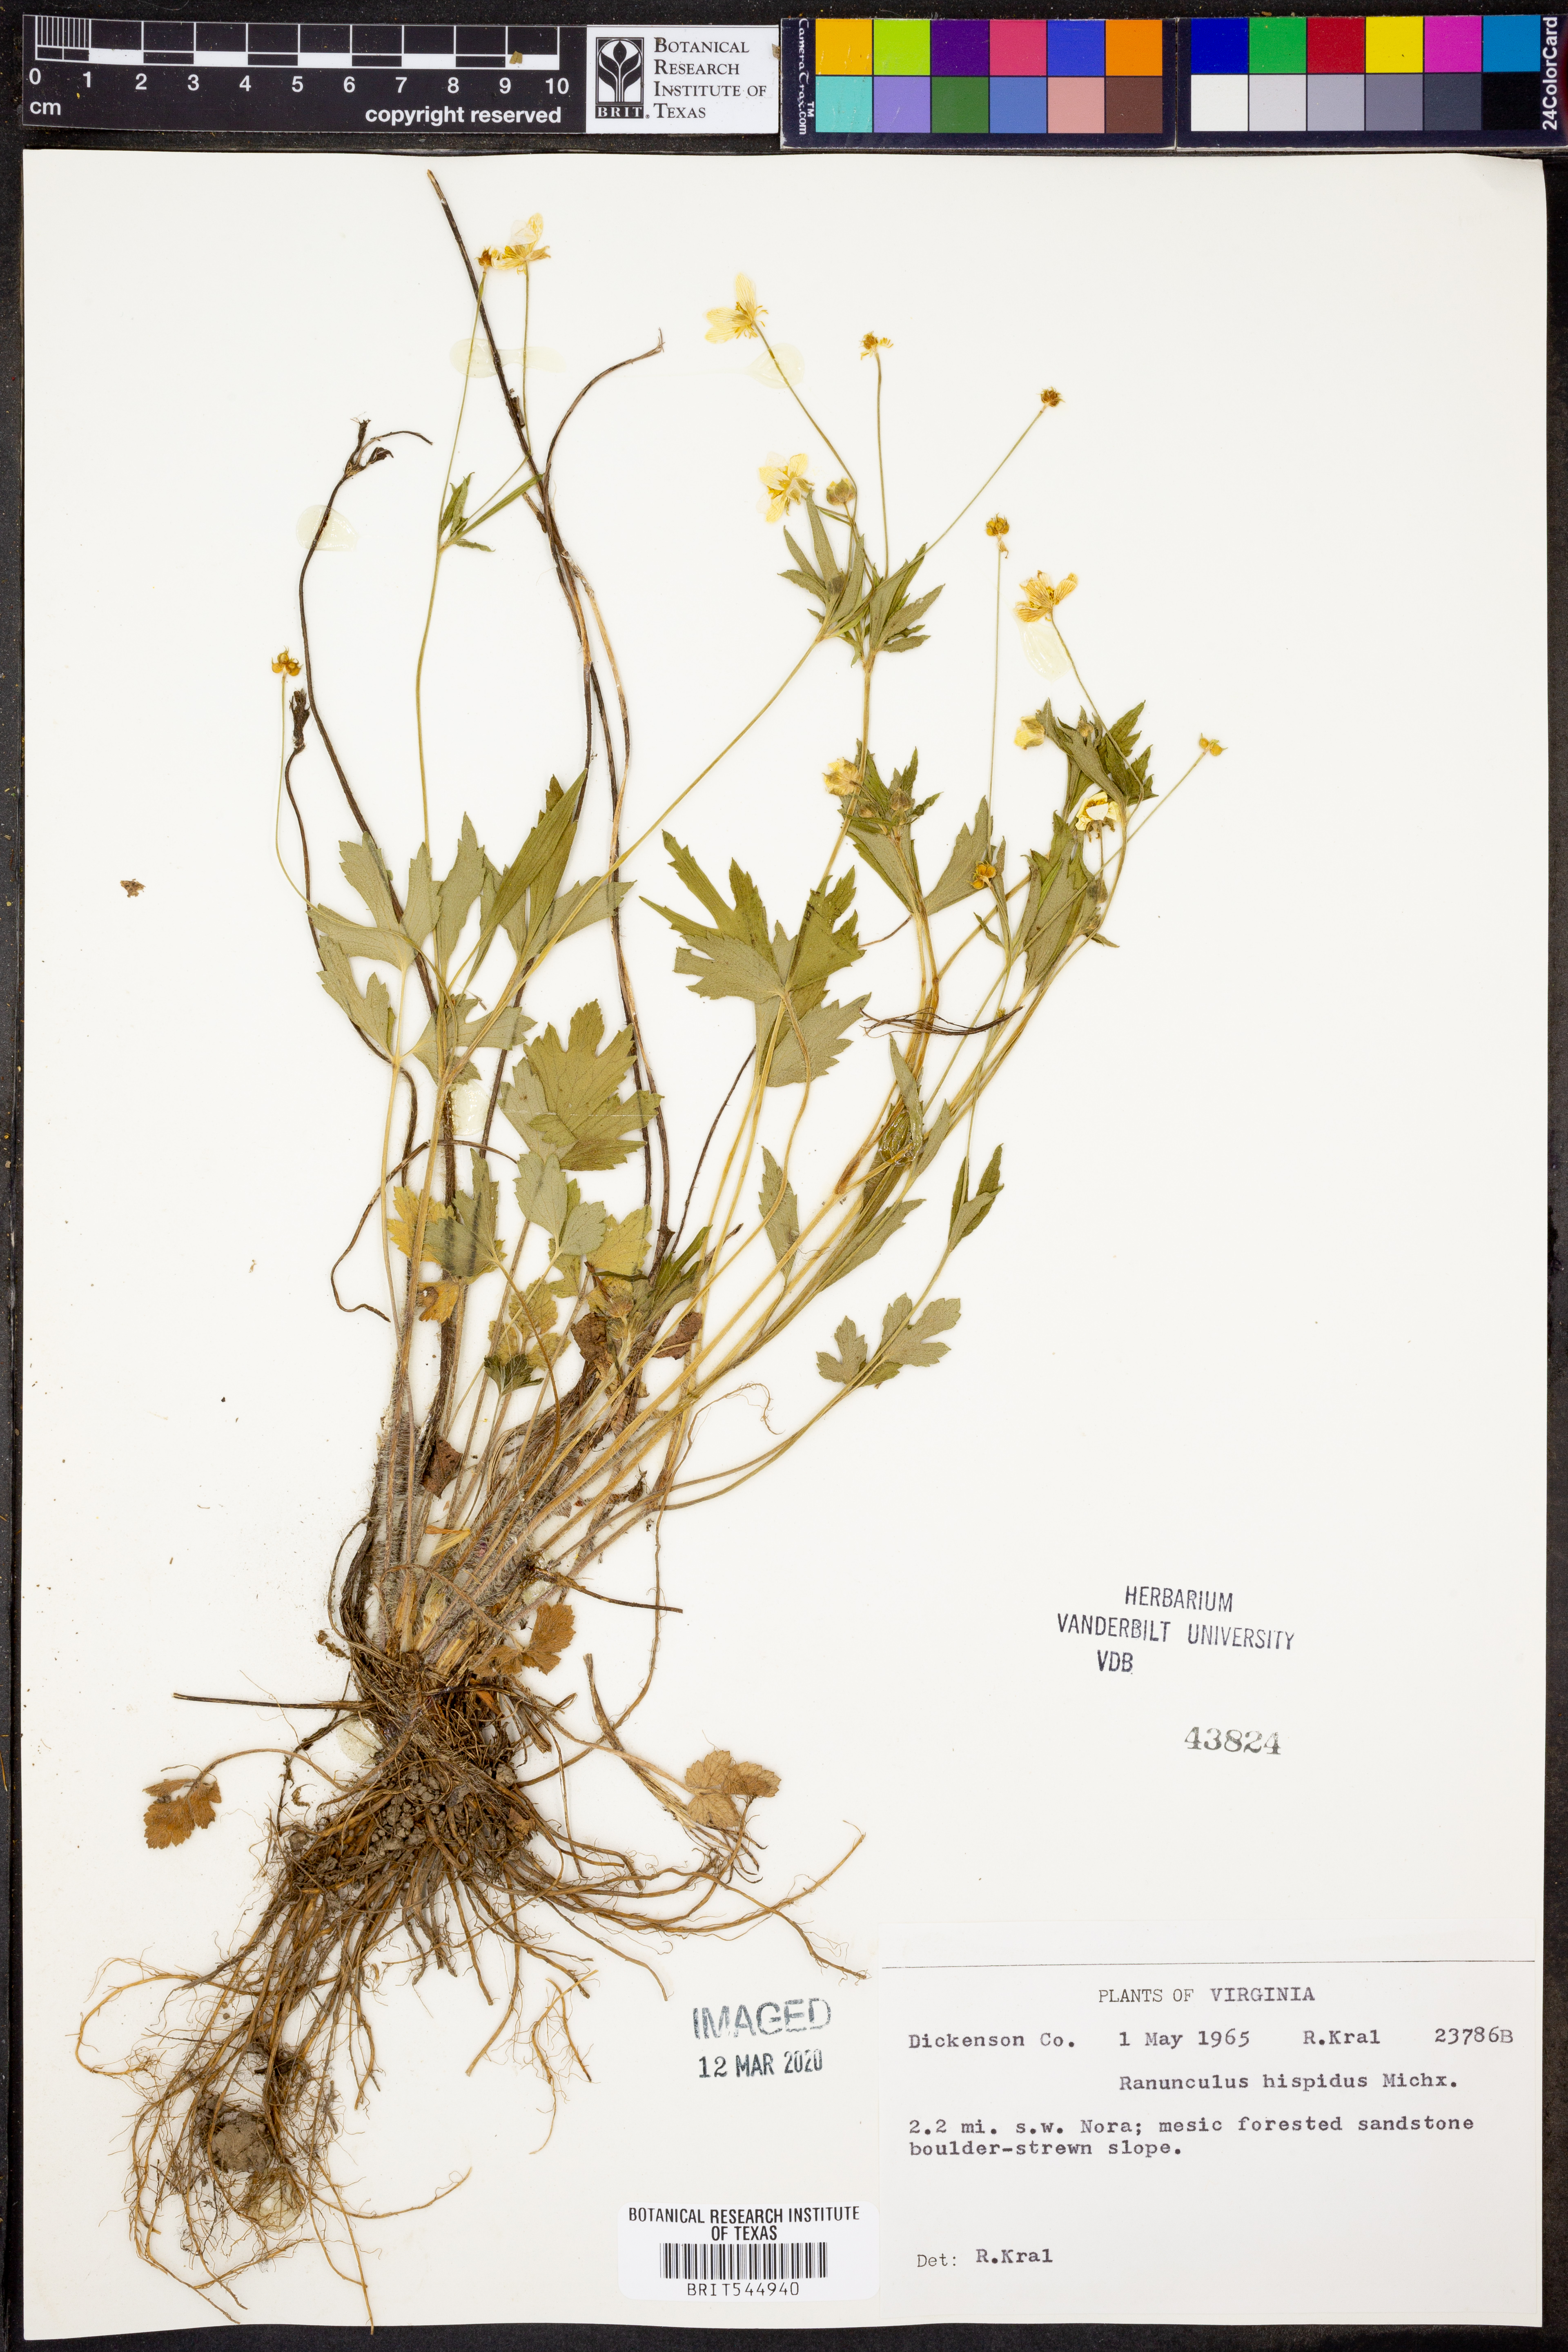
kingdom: Plantae
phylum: Tracheophyta
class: Magnoliopsida
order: Ranunculales
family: Ranunculaceae
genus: Ranunculus
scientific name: Ranunculus hispidus
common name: Bristly buttercup
